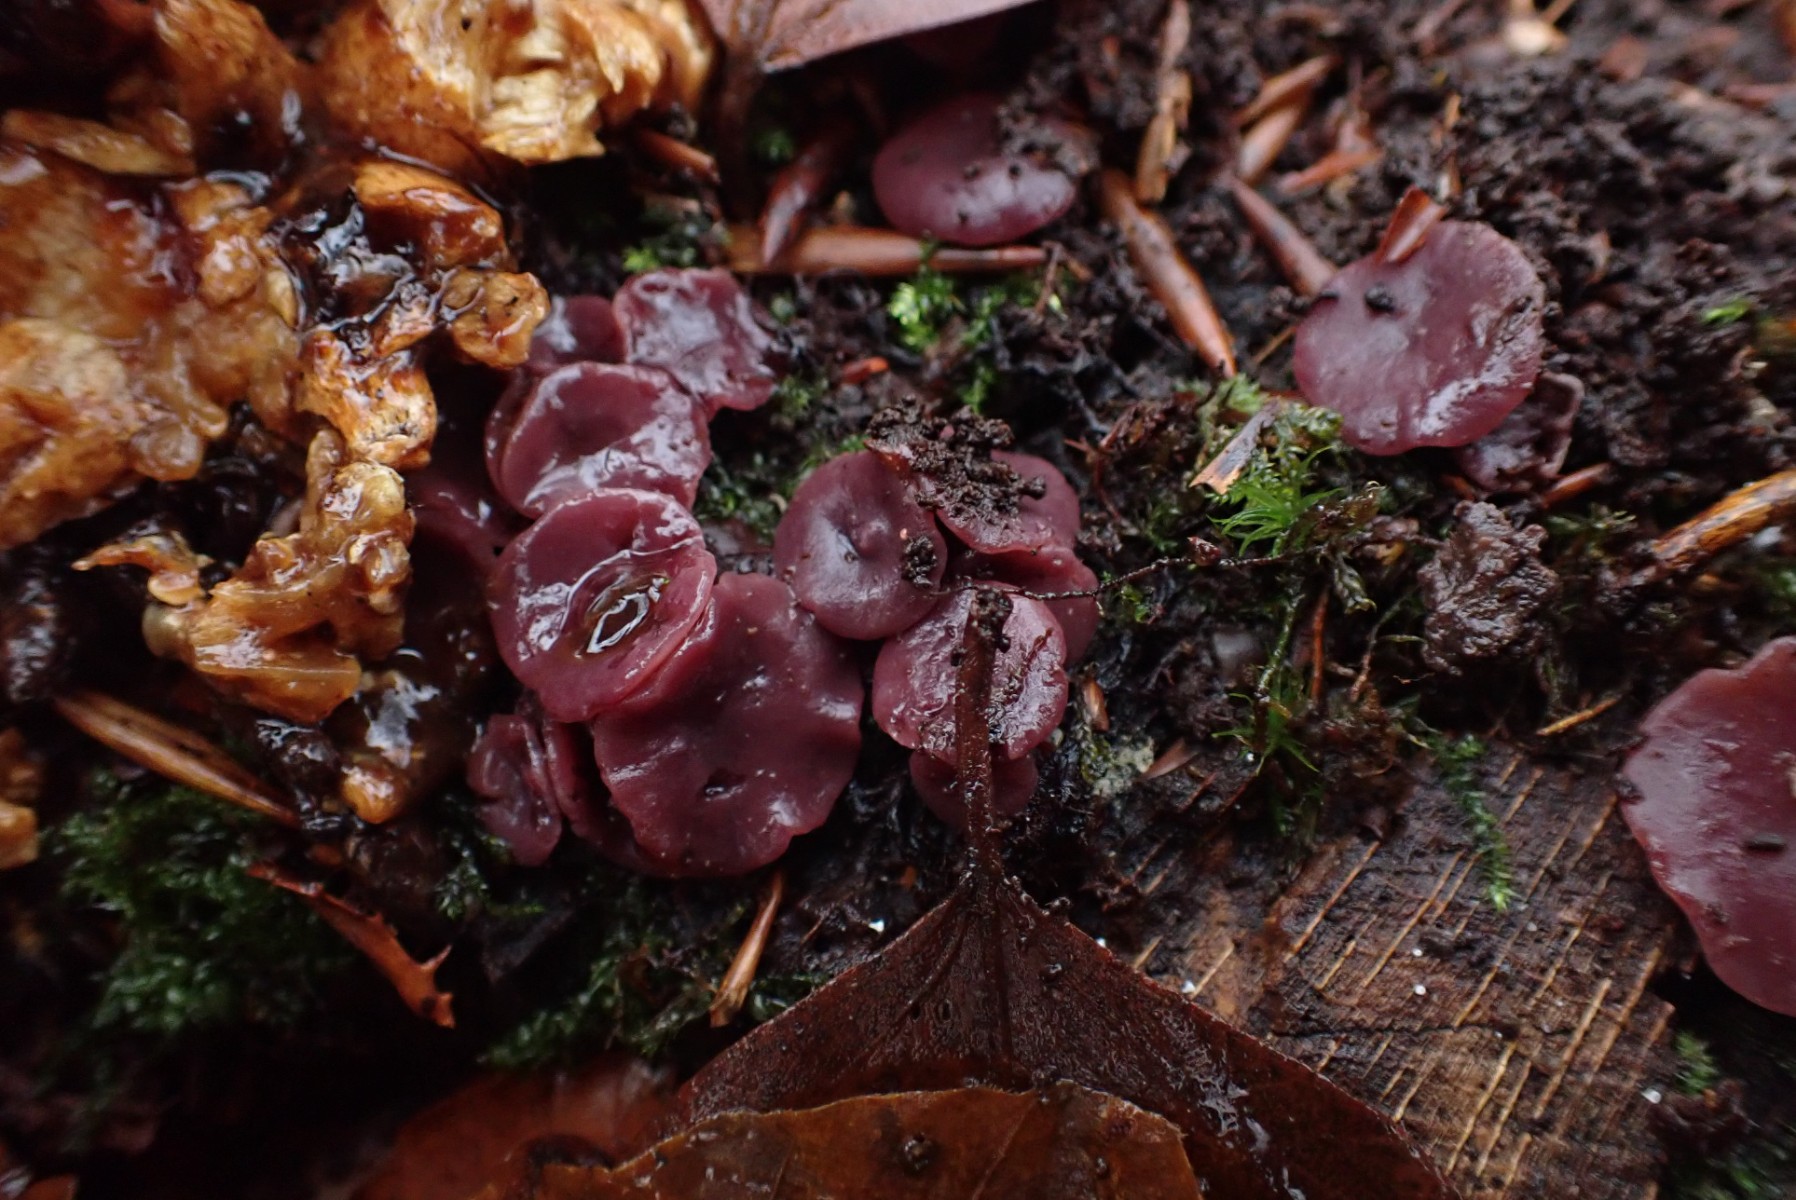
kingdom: Fungi
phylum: Ascomycota
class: Leotiomycetes
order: Helotiales
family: Gelatinodiscaceae
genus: Ascocoryne
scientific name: Ascocoryne cylichnium
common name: stor sejskive
